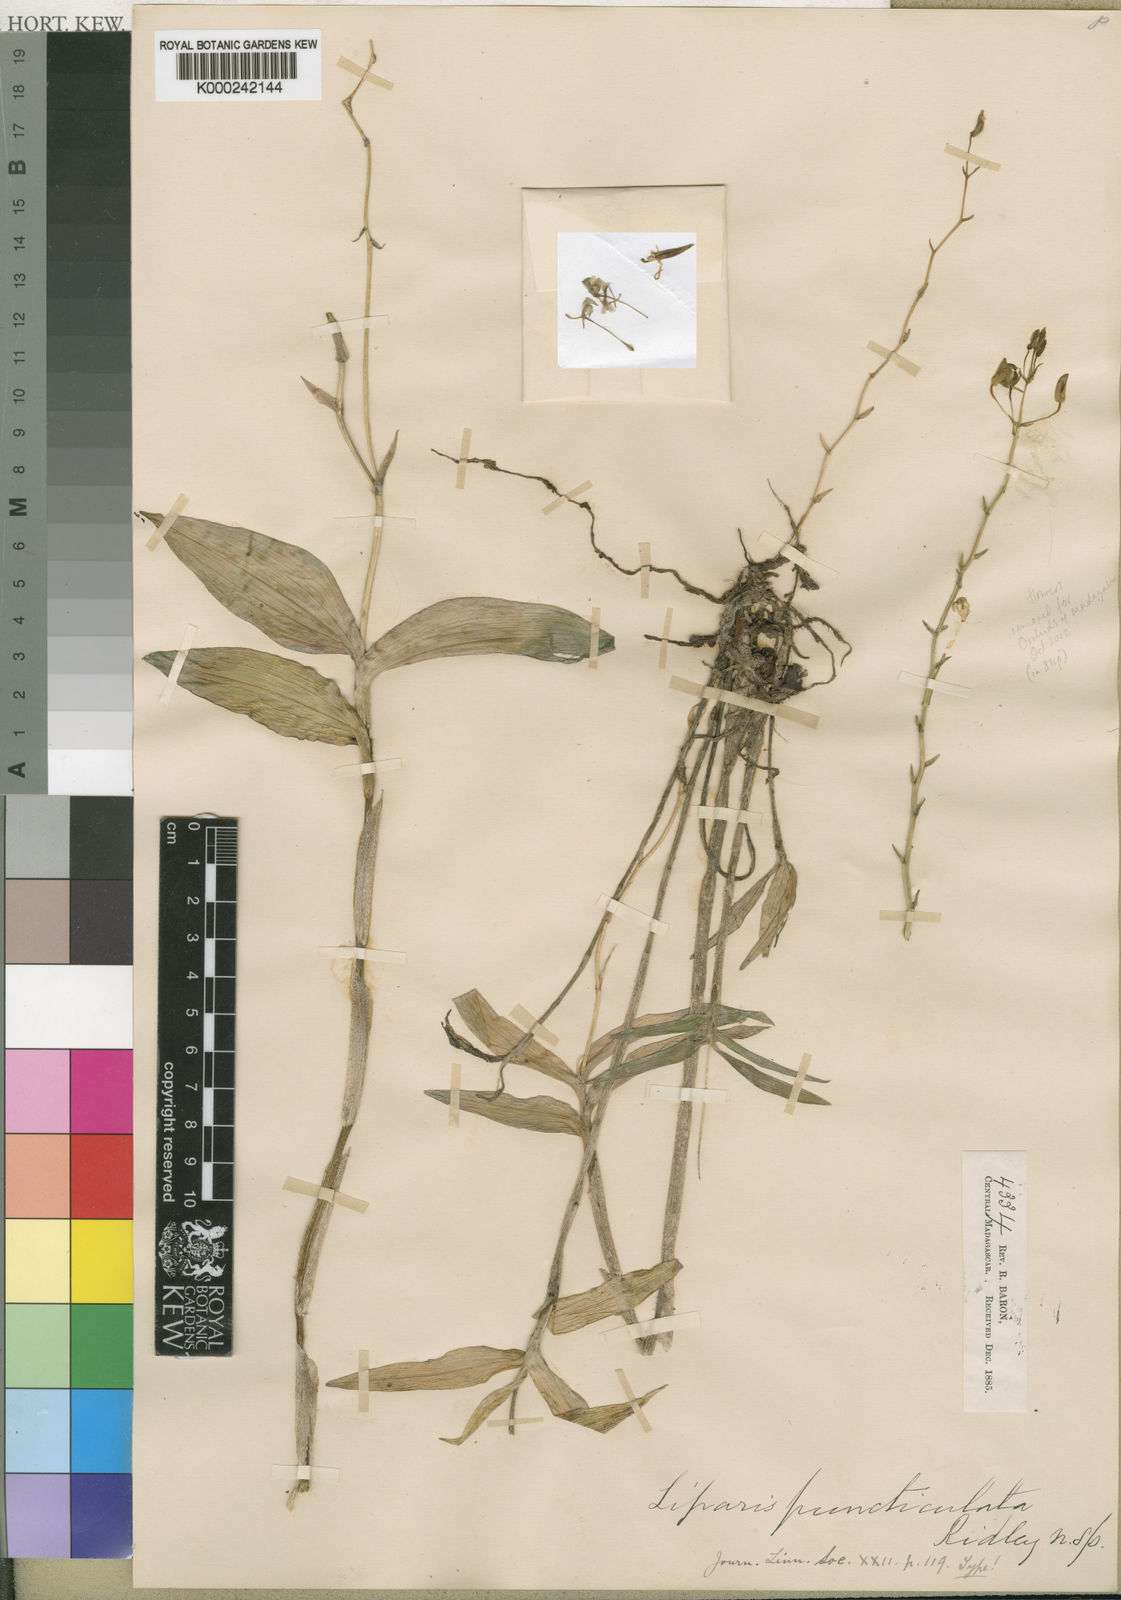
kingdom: Plantae
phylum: Tracheophyta
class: Liliopsida
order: Asparagales
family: Orchidaceae
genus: Liparis
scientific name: Liparis puncticulata
